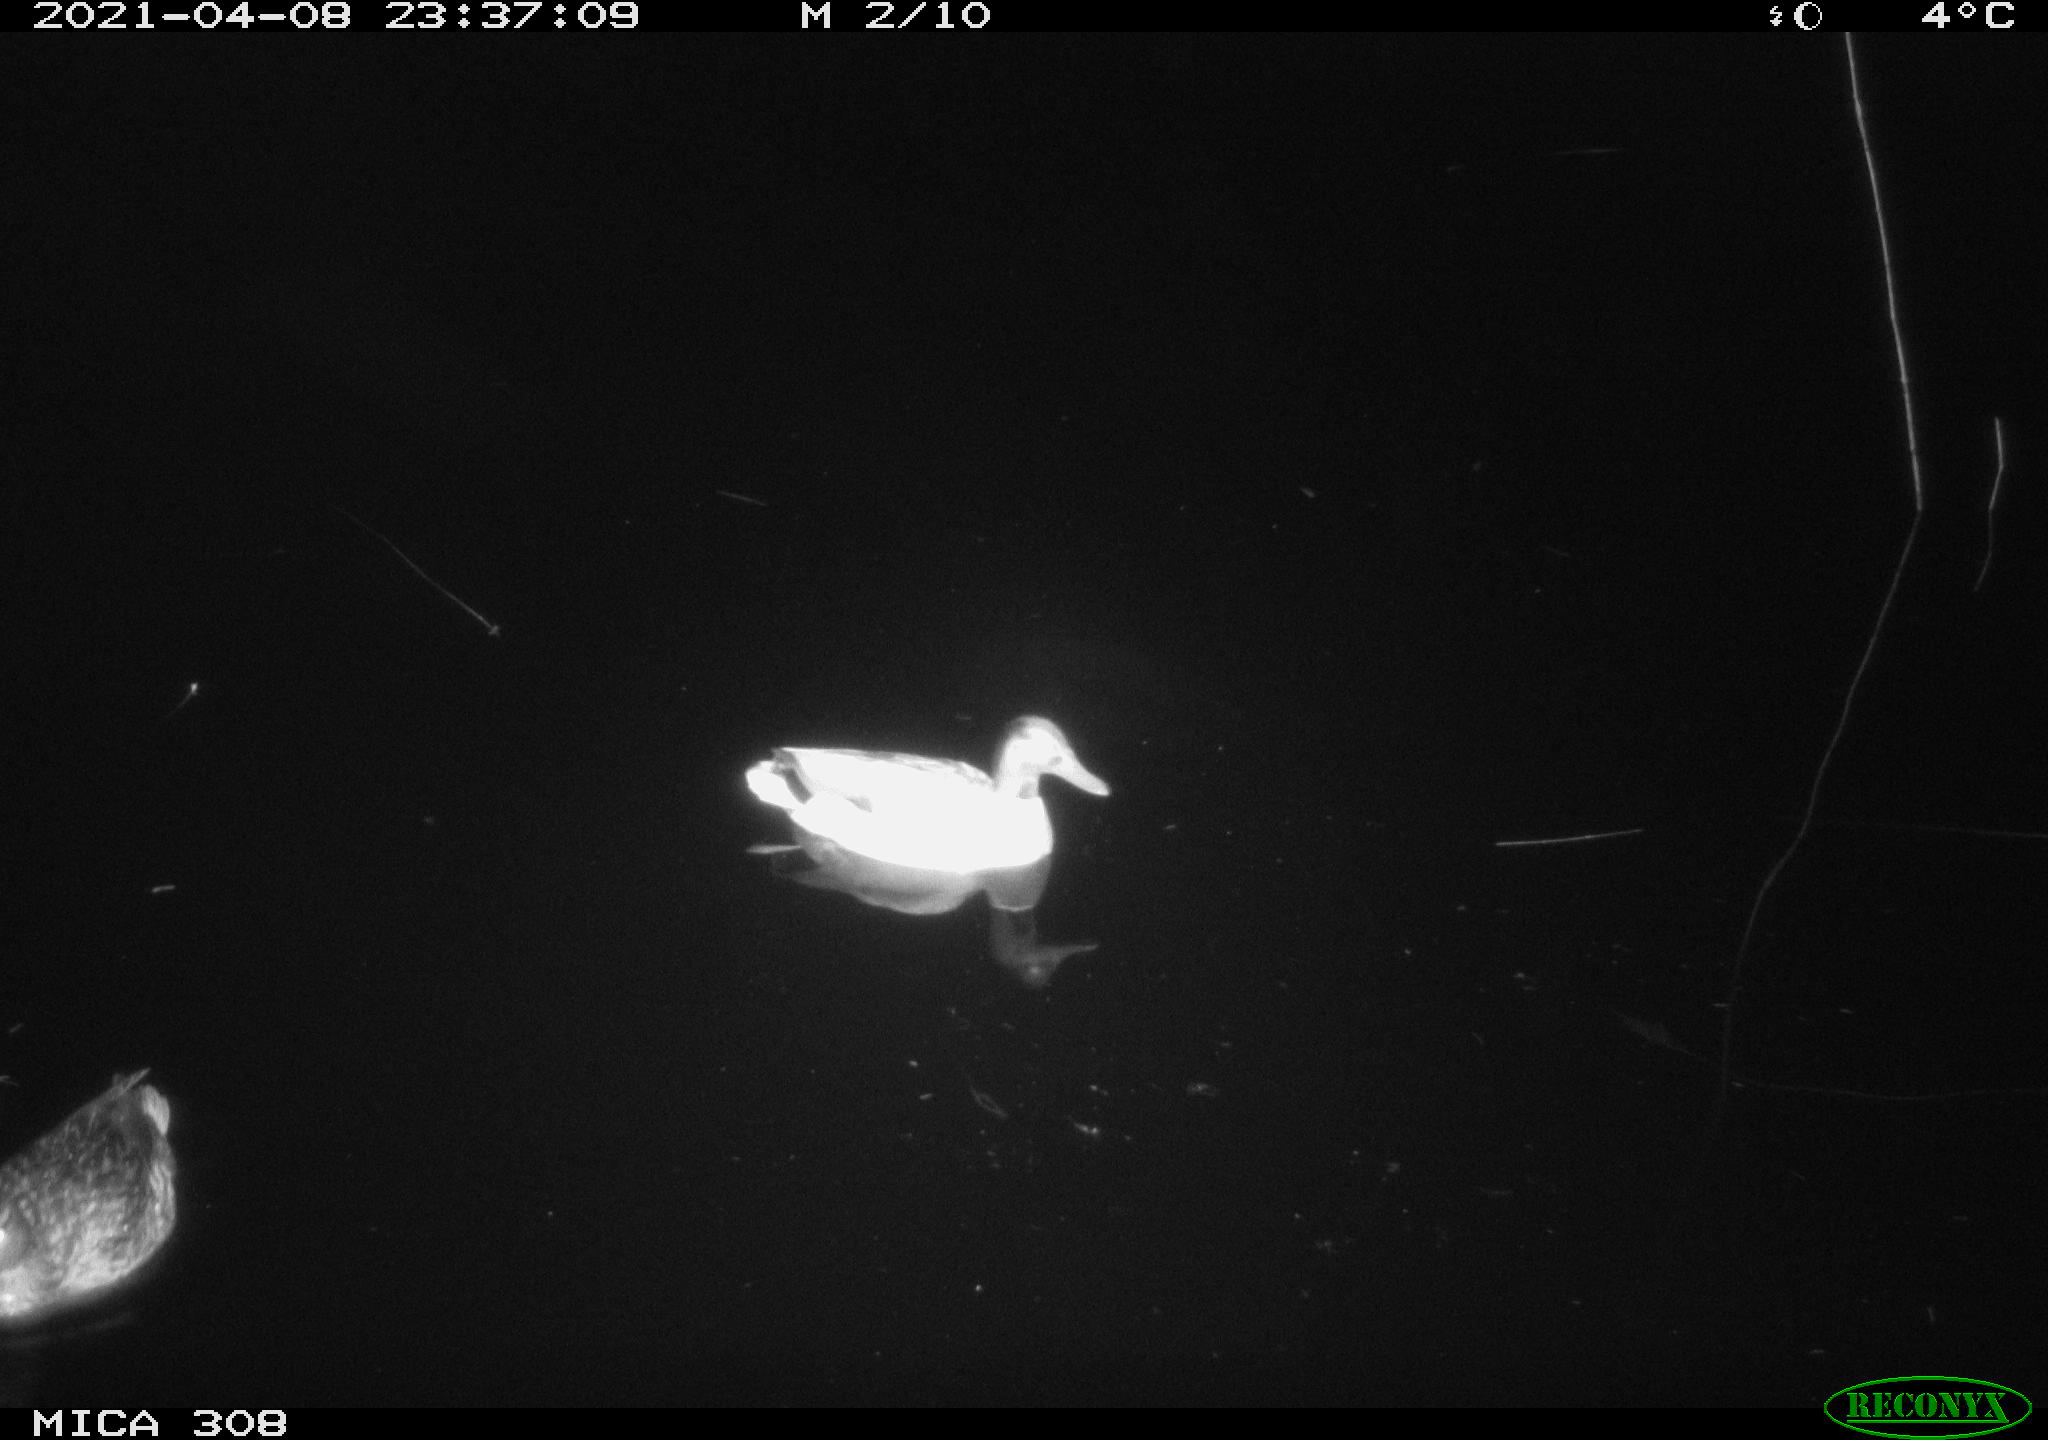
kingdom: Animalia
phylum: Chordata
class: Aves
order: Anseriformes
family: Anatidae
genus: Anas
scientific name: Anas platyrhynchos
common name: Mallard
